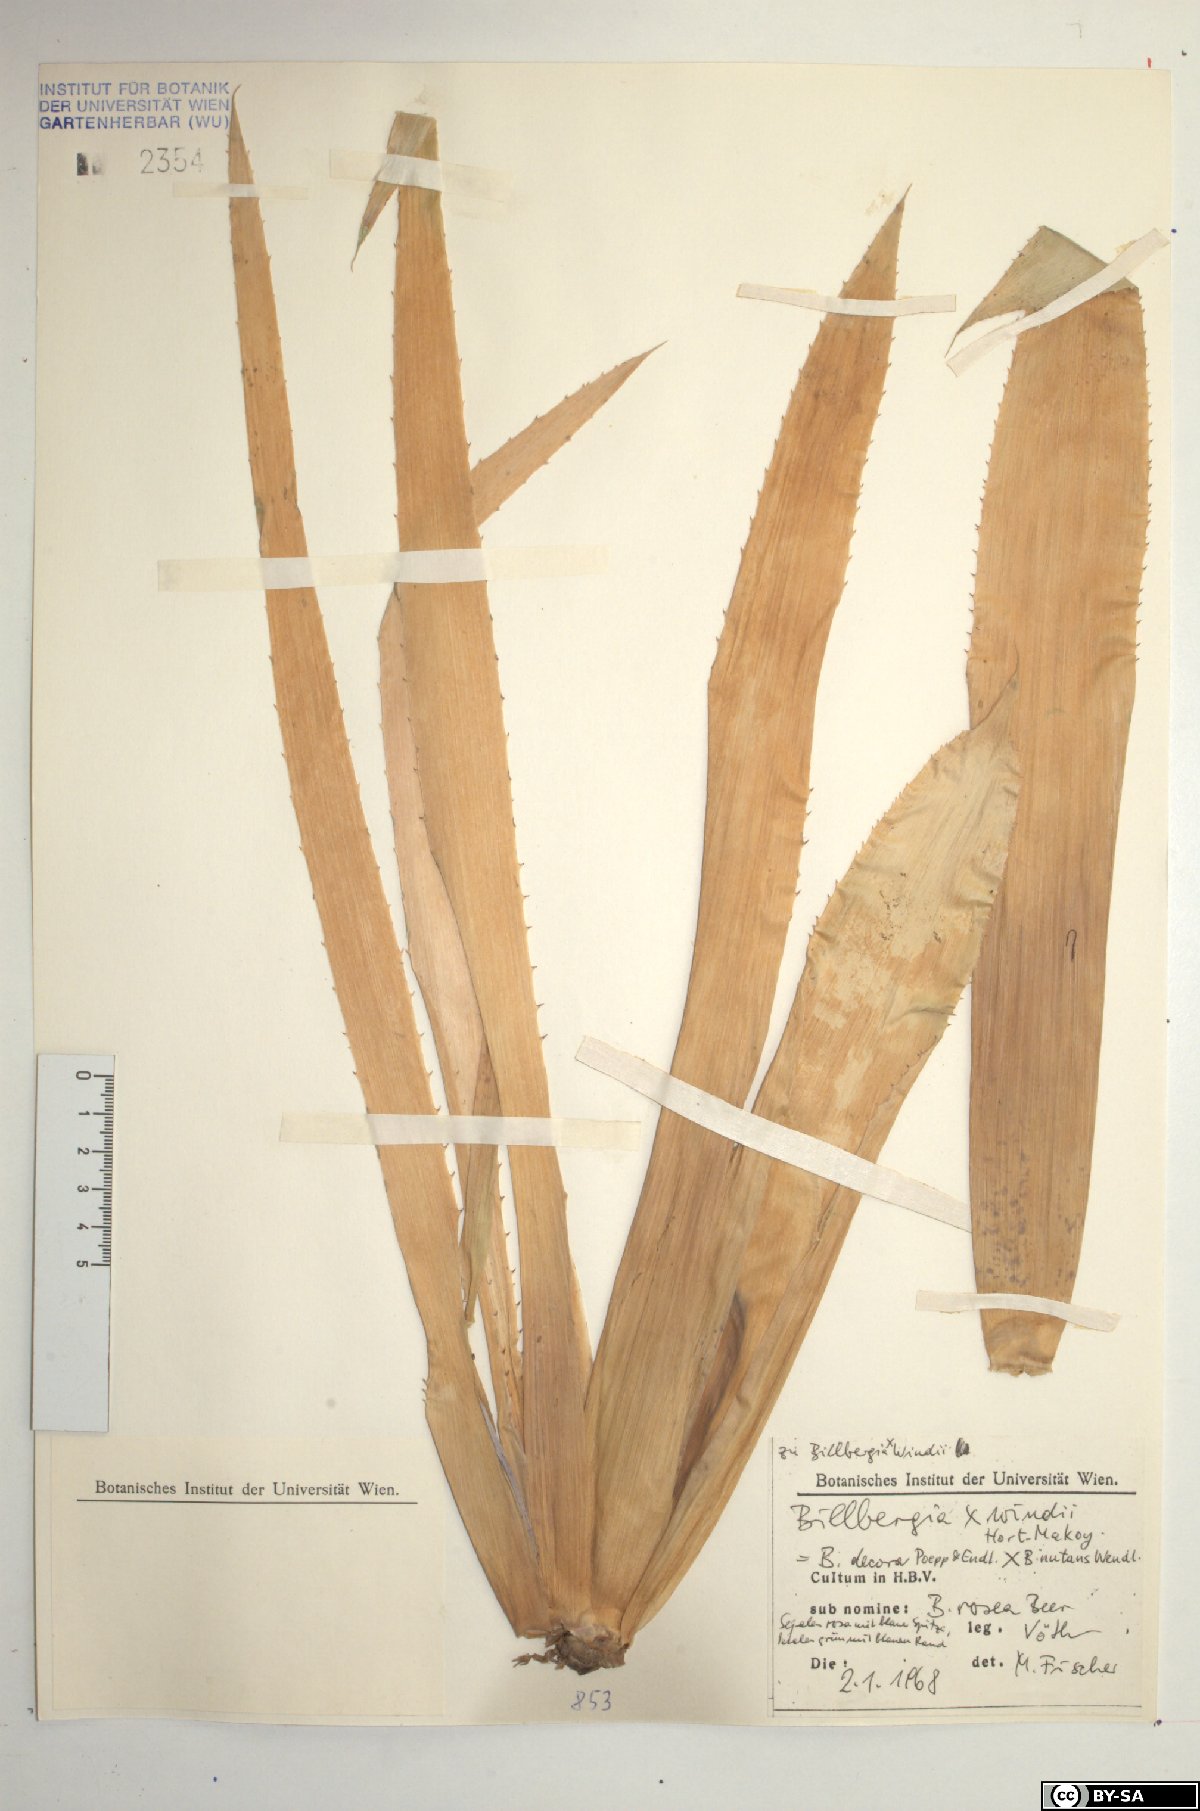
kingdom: Plantae
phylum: Tracheophyta
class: Liliopsida
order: Poales
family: Bromeliaceae
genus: Billbergia
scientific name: Billbergia decora
